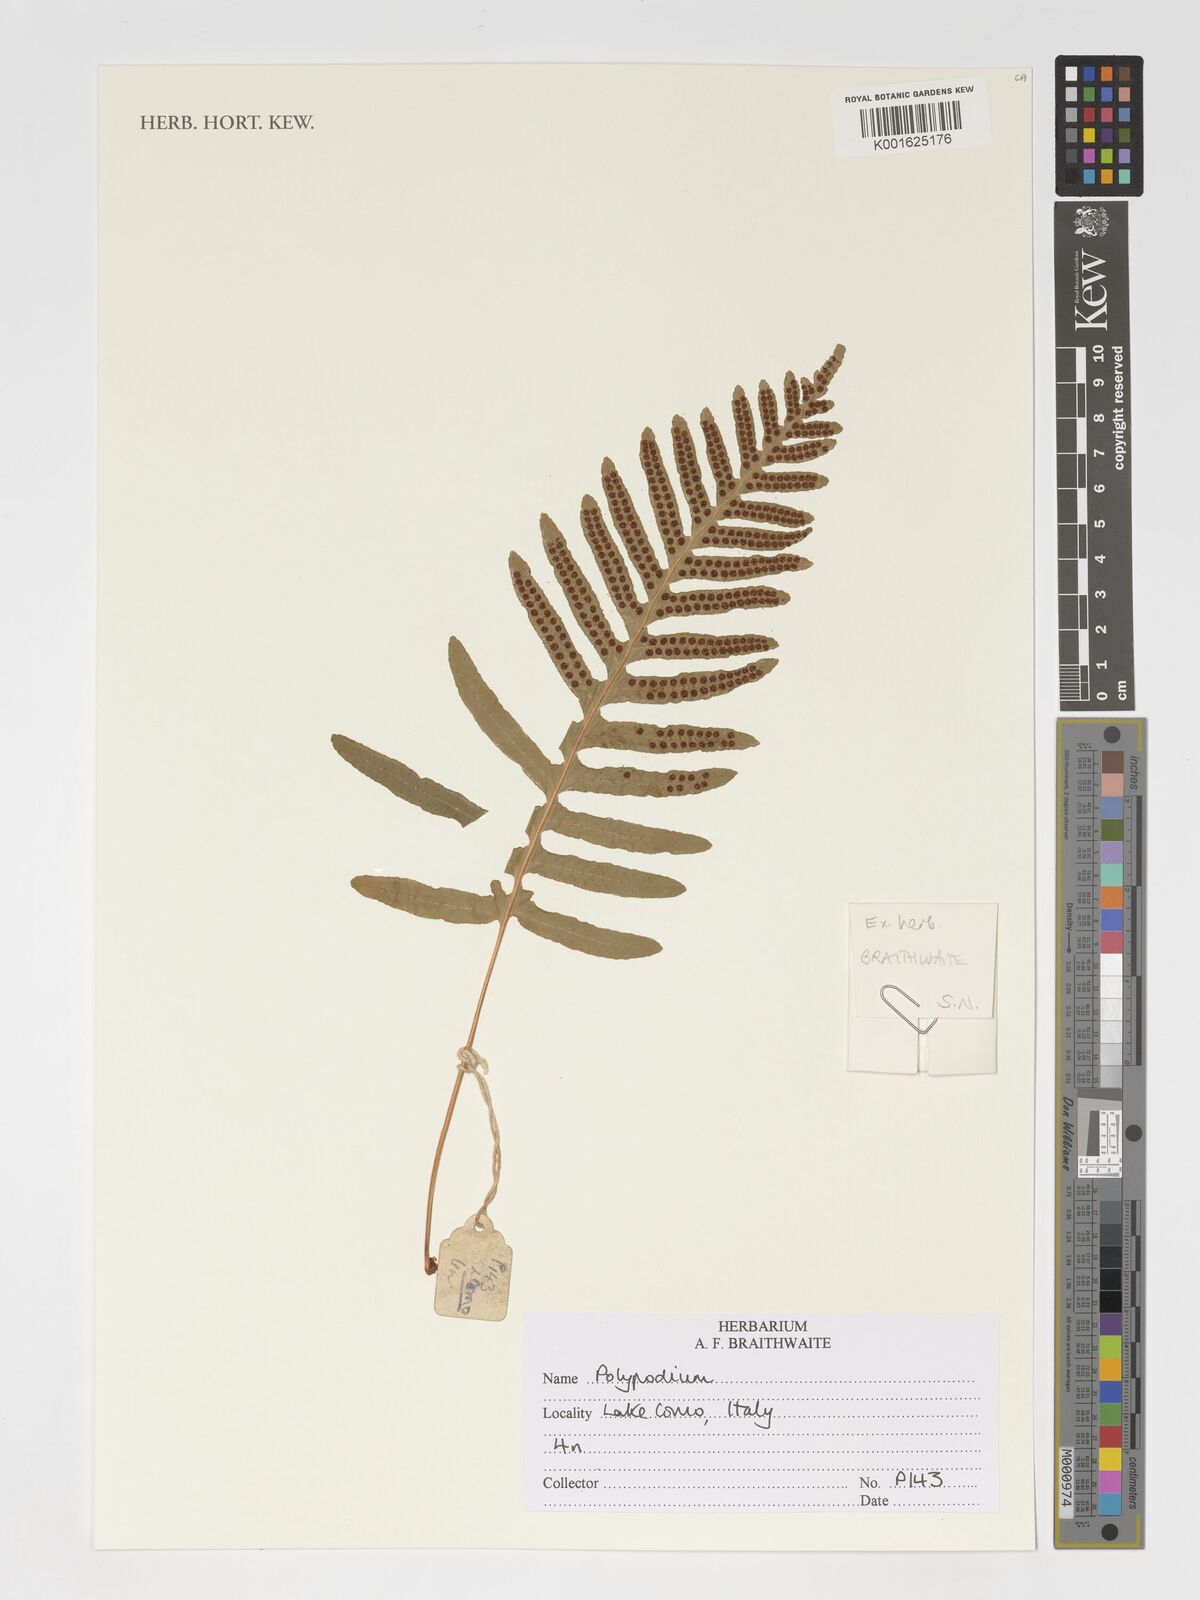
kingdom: Plantae
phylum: Tracheophyta
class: Polypodiopsida
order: Polypodiales
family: Polypodiaceae
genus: Polypodium
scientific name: Polypodium
